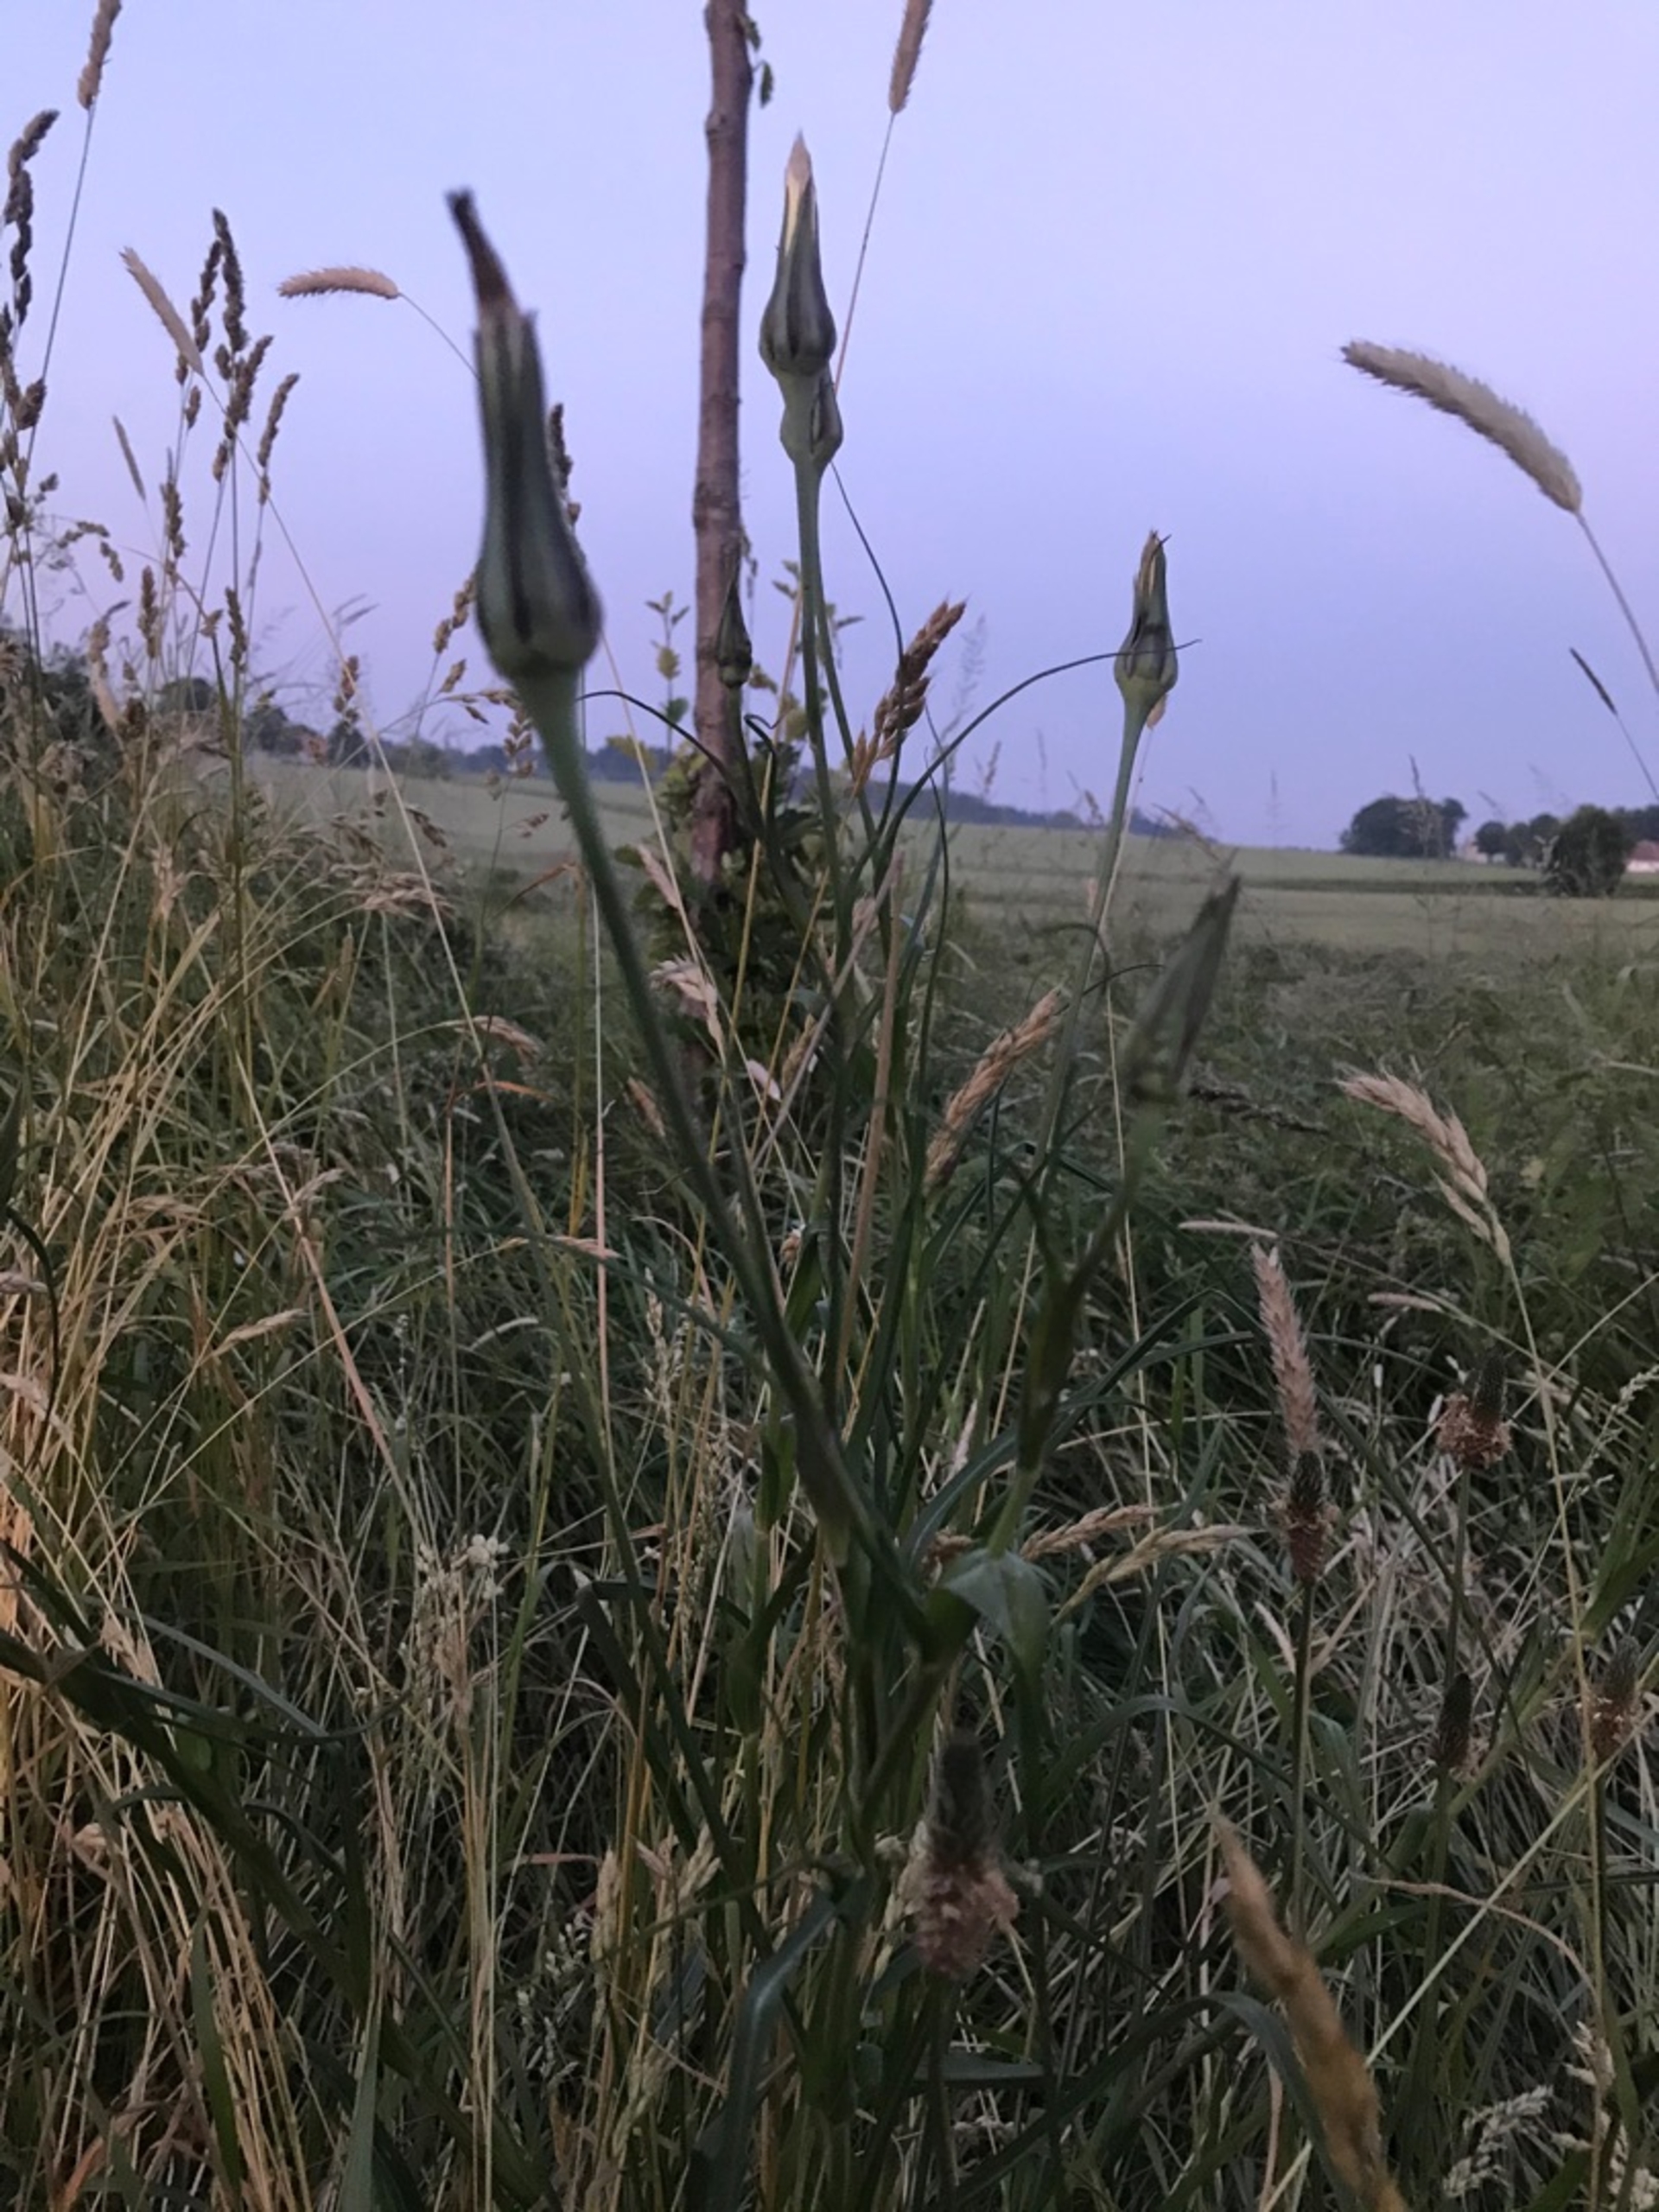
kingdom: Plantae
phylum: Tracheophyta
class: Magnoliopsida
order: Asterales
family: Asteraceae
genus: Tragopogon
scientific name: Tragopogon minor
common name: Småkronet gedeskæg
